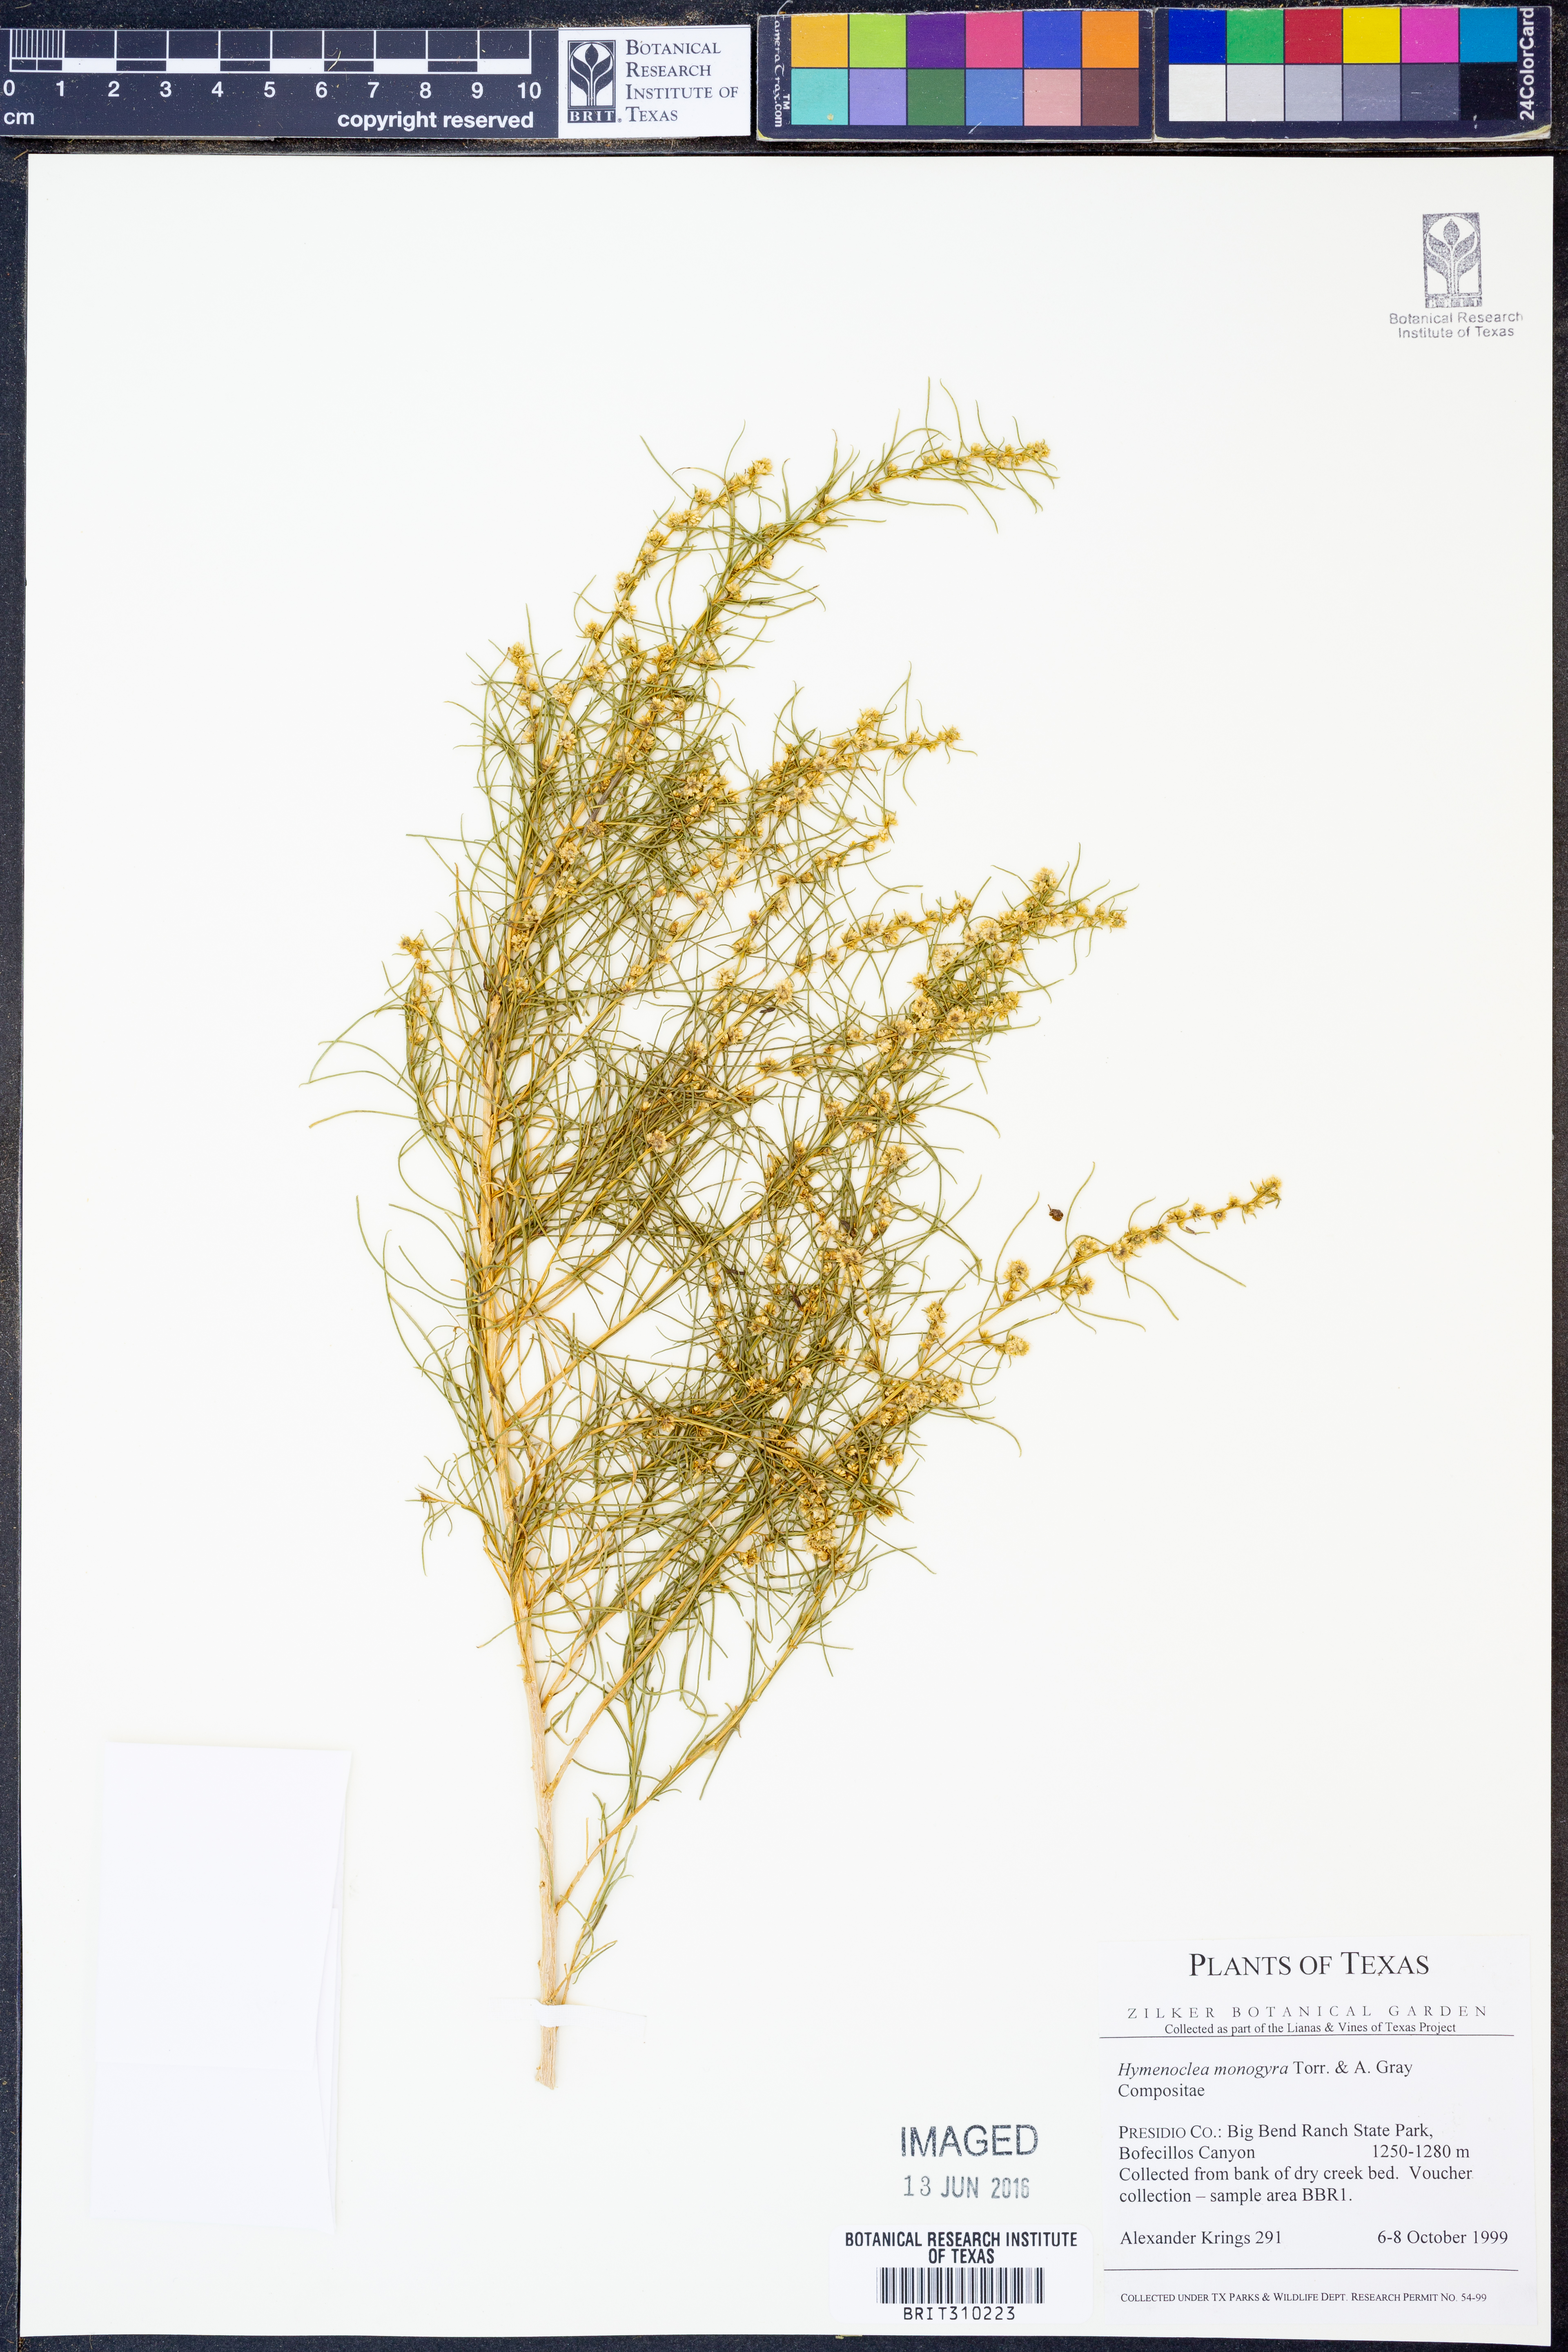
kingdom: Plantae
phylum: Tracheophyta
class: Magnoliopsida
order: Asterales
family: Asteraceae
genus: Ambrosia
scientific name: Ambrosia monogyra
